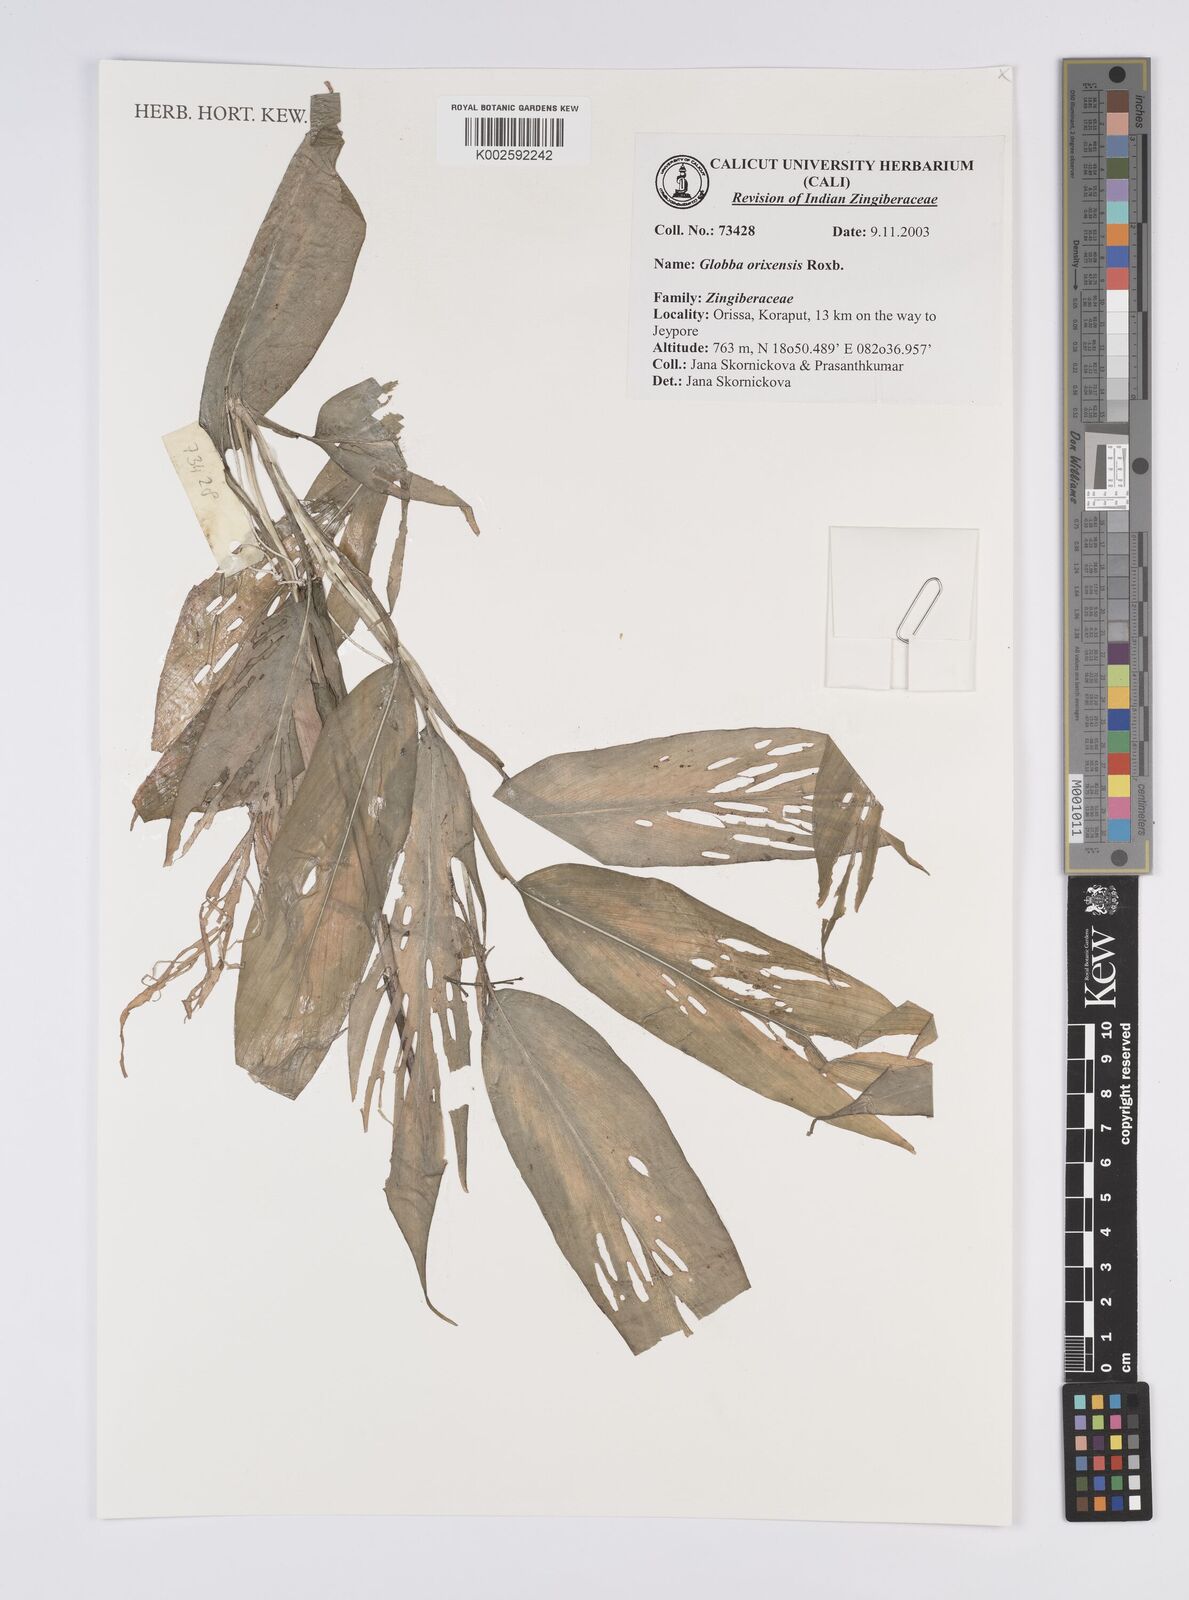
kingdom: Plantae
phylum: Tracheophyta
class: Liliopsida
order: Zingiberales
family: Zingiberaceae
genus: Globba
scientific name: Globba orixensis
